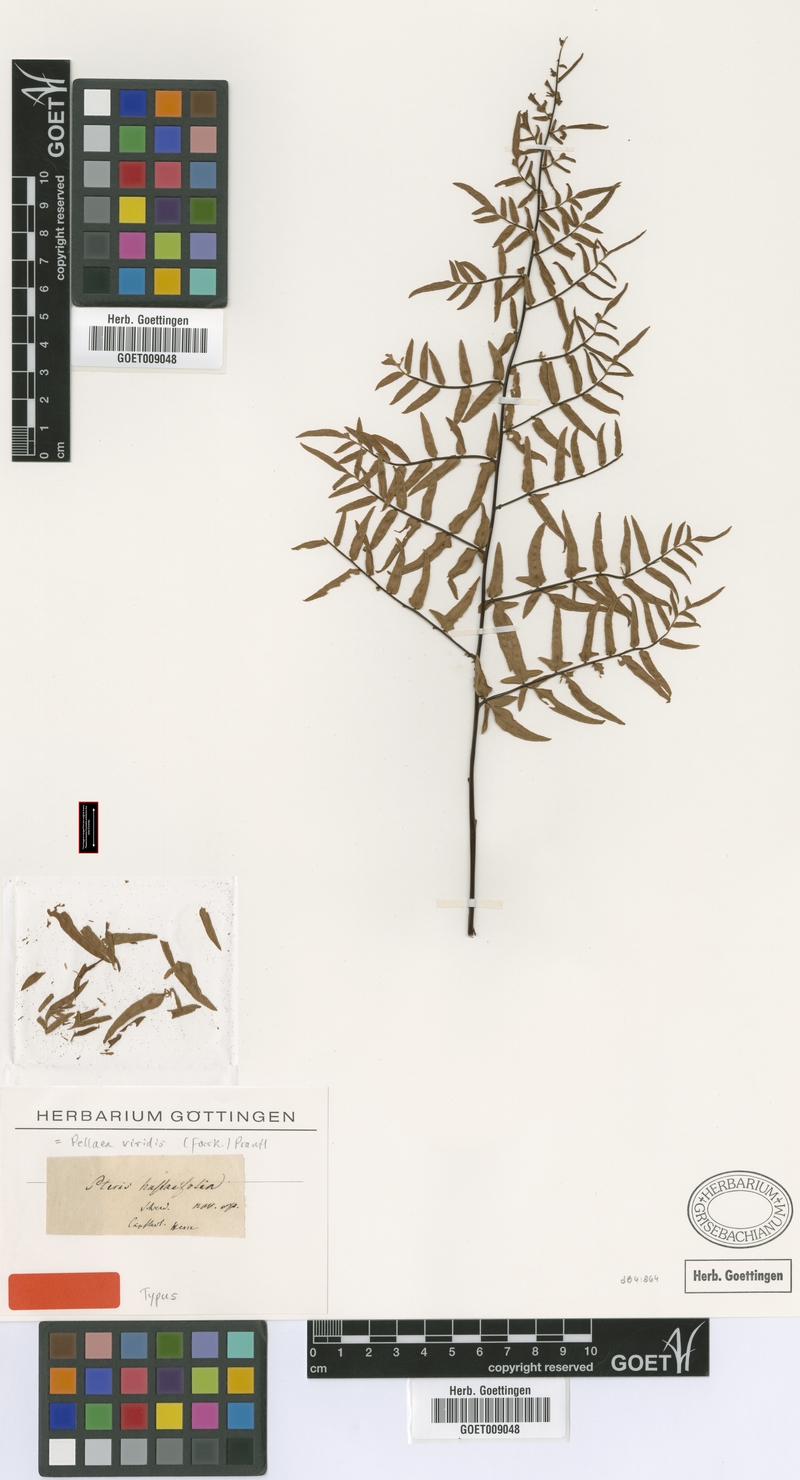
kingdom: Plantae
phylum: Tracheophyta
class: Polypodiopsida
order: Polypodiales
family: Pteridaceae
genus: Cheilanthes
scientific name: Cheilanthes viridis
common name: Green cliffbrake
